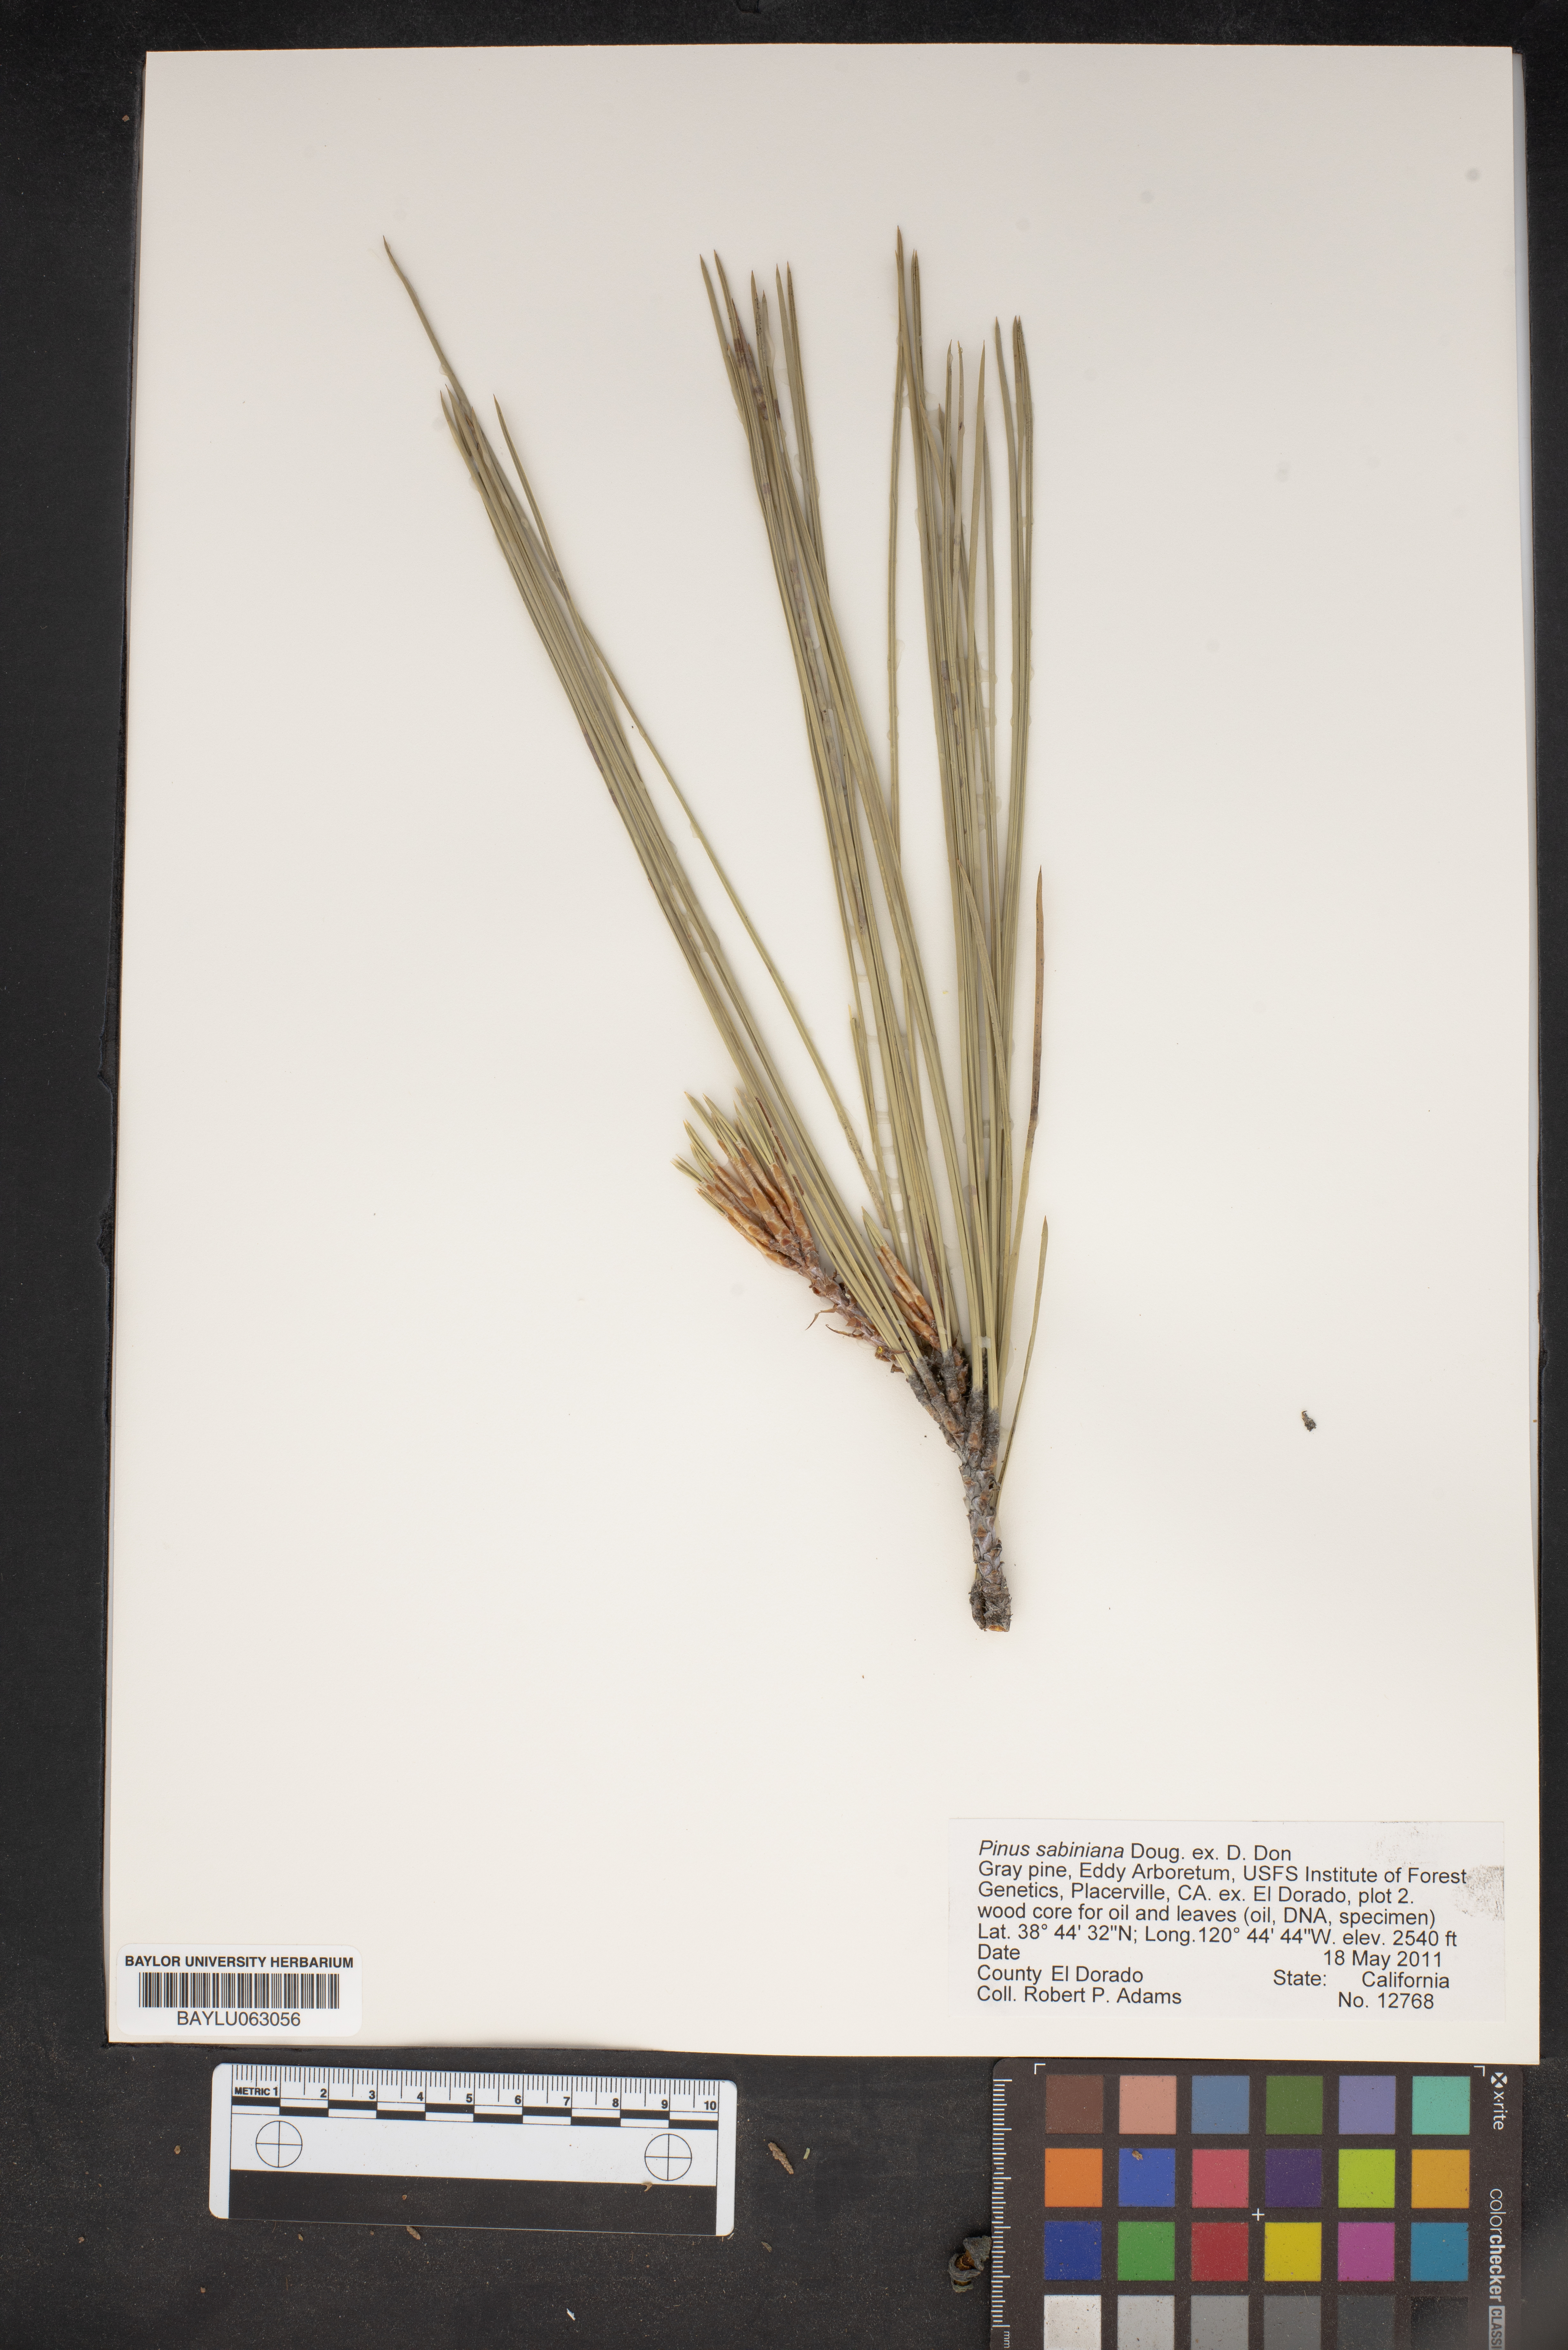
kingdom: Plantae
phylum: Tracheophyta
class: Pinopsida
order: Pinales
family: Pinaceae
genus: Pinus
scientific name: Pinus sabiniana
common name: Bull pine
